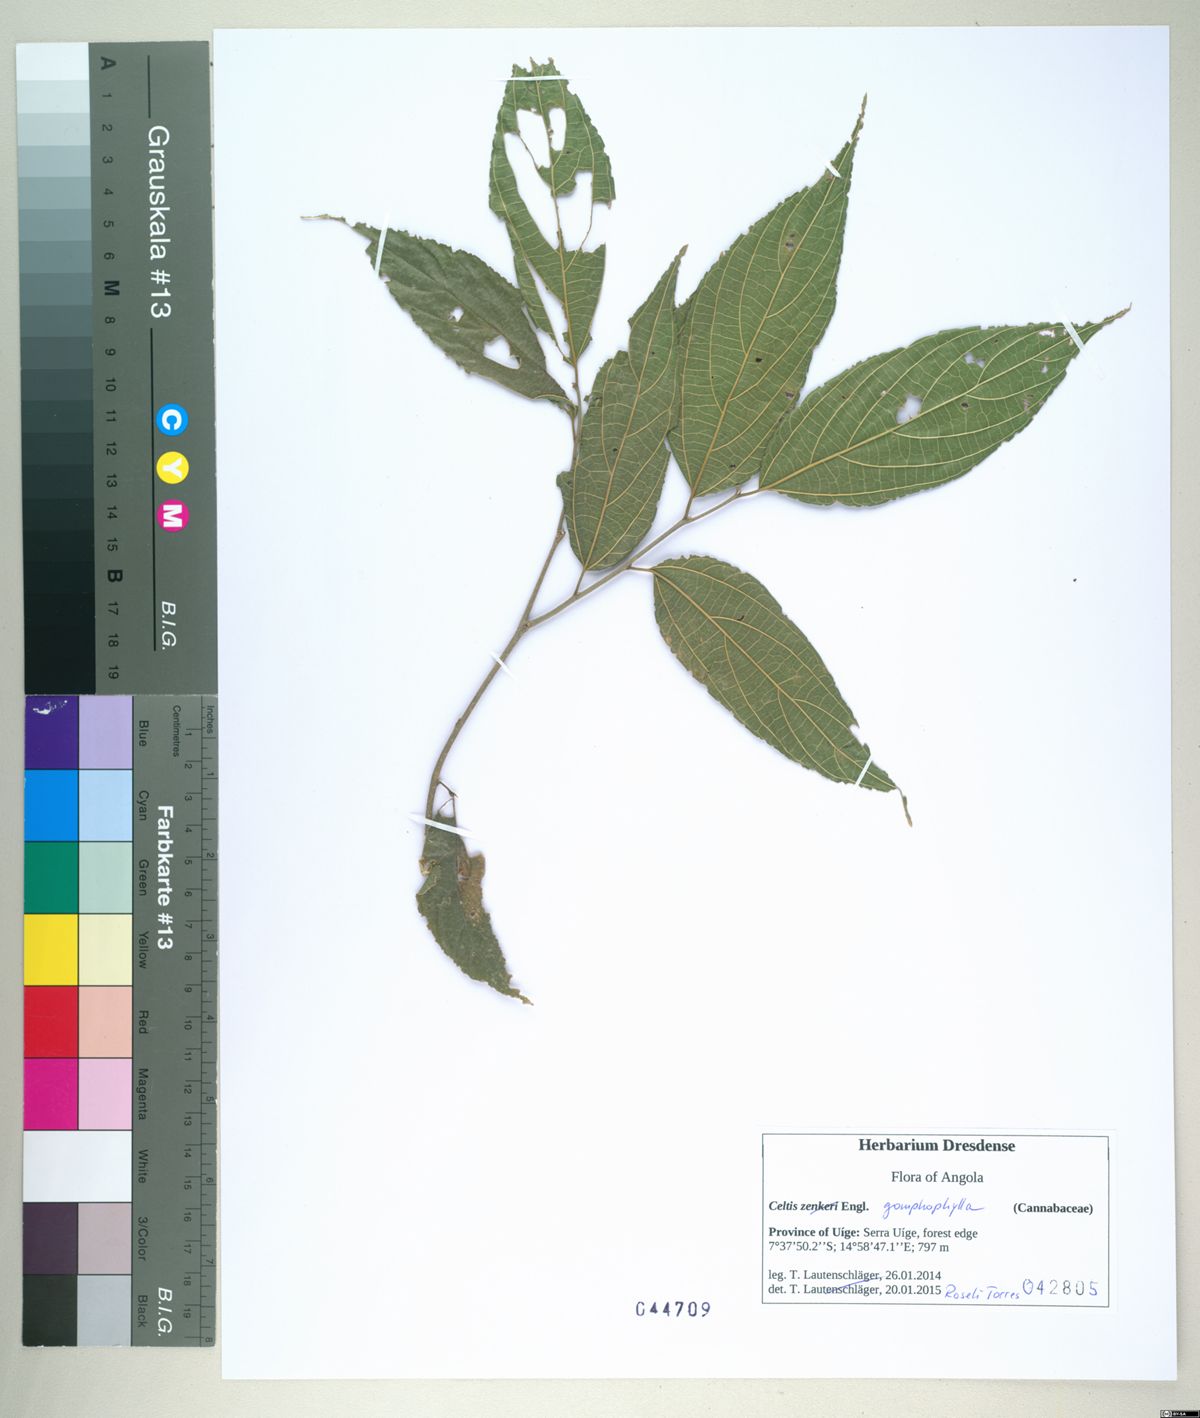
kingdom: Plantae
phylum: Tracheophyta
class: Magnoliopsida
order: Rosales
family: Cannabaceae
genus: Celtis
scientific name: Celtis gomphophylla
